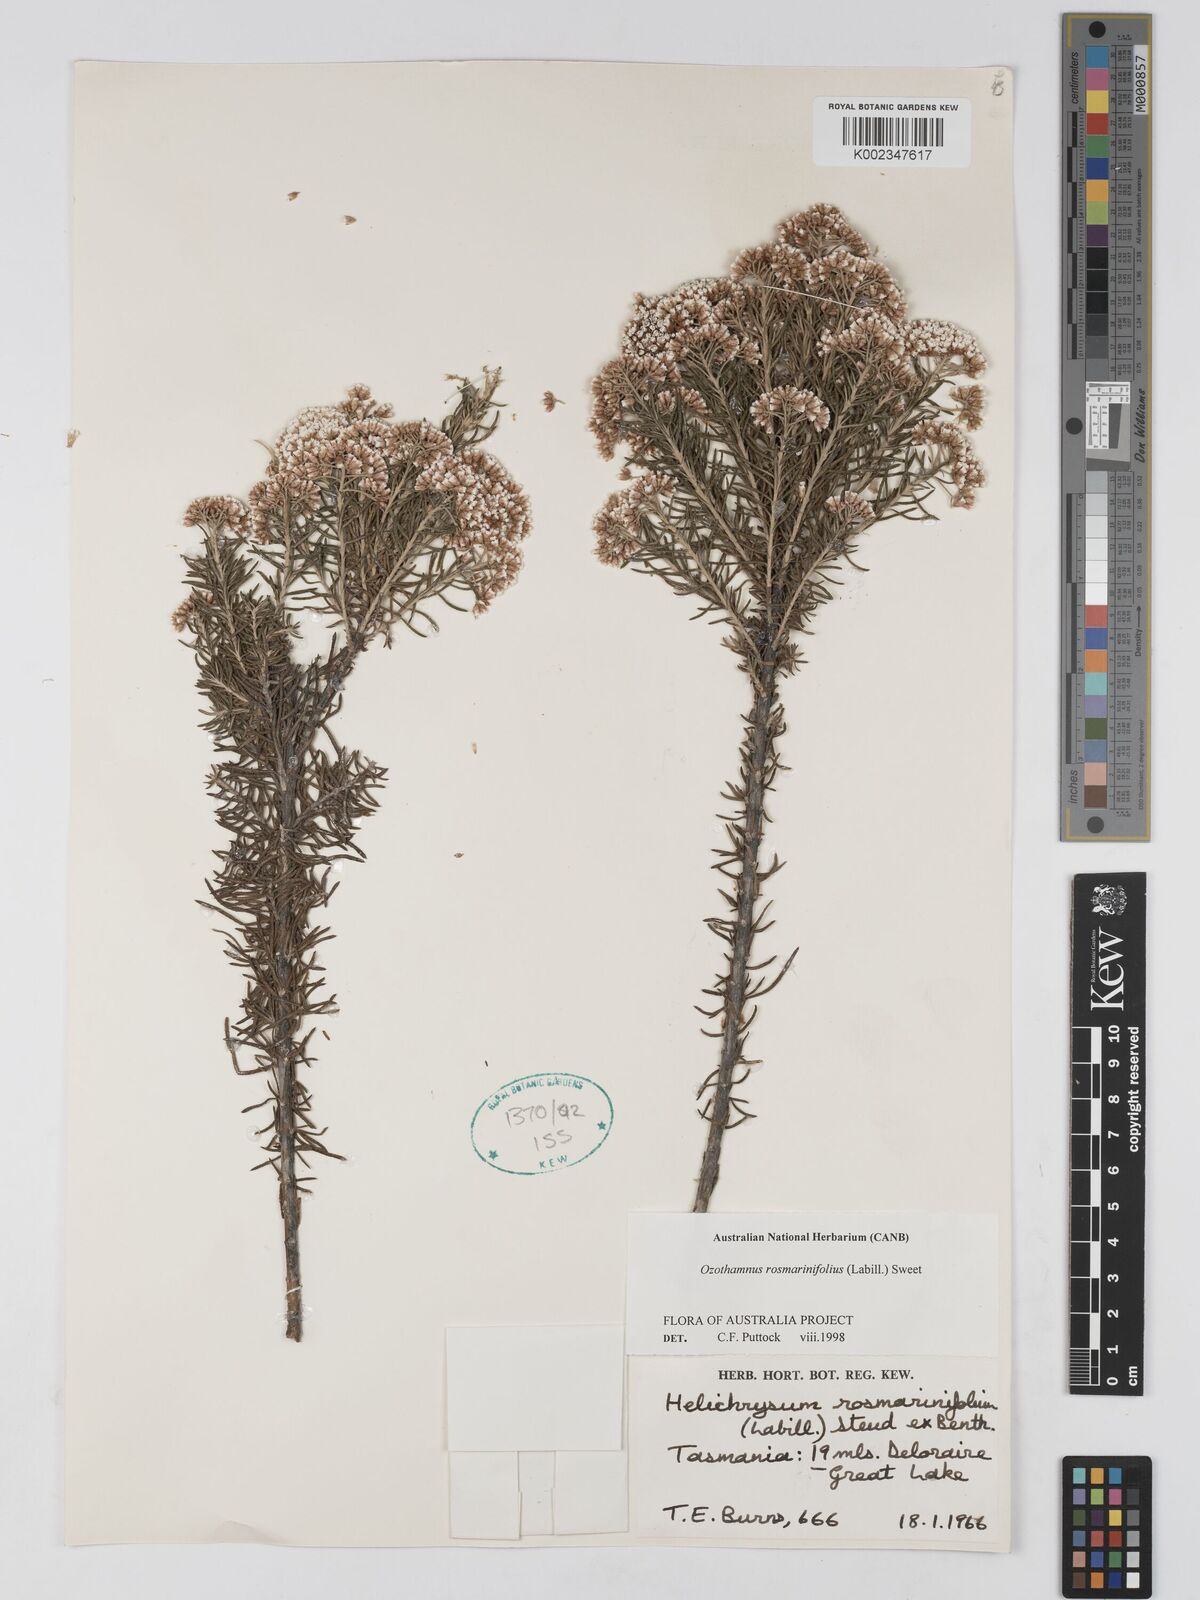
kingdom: Plantae
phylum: Tracheophyta
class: Magnoliopsida
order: Asterales
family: Asteraceae
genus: Ozothamnus
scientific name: Ozothamnus rosmarinifolius
